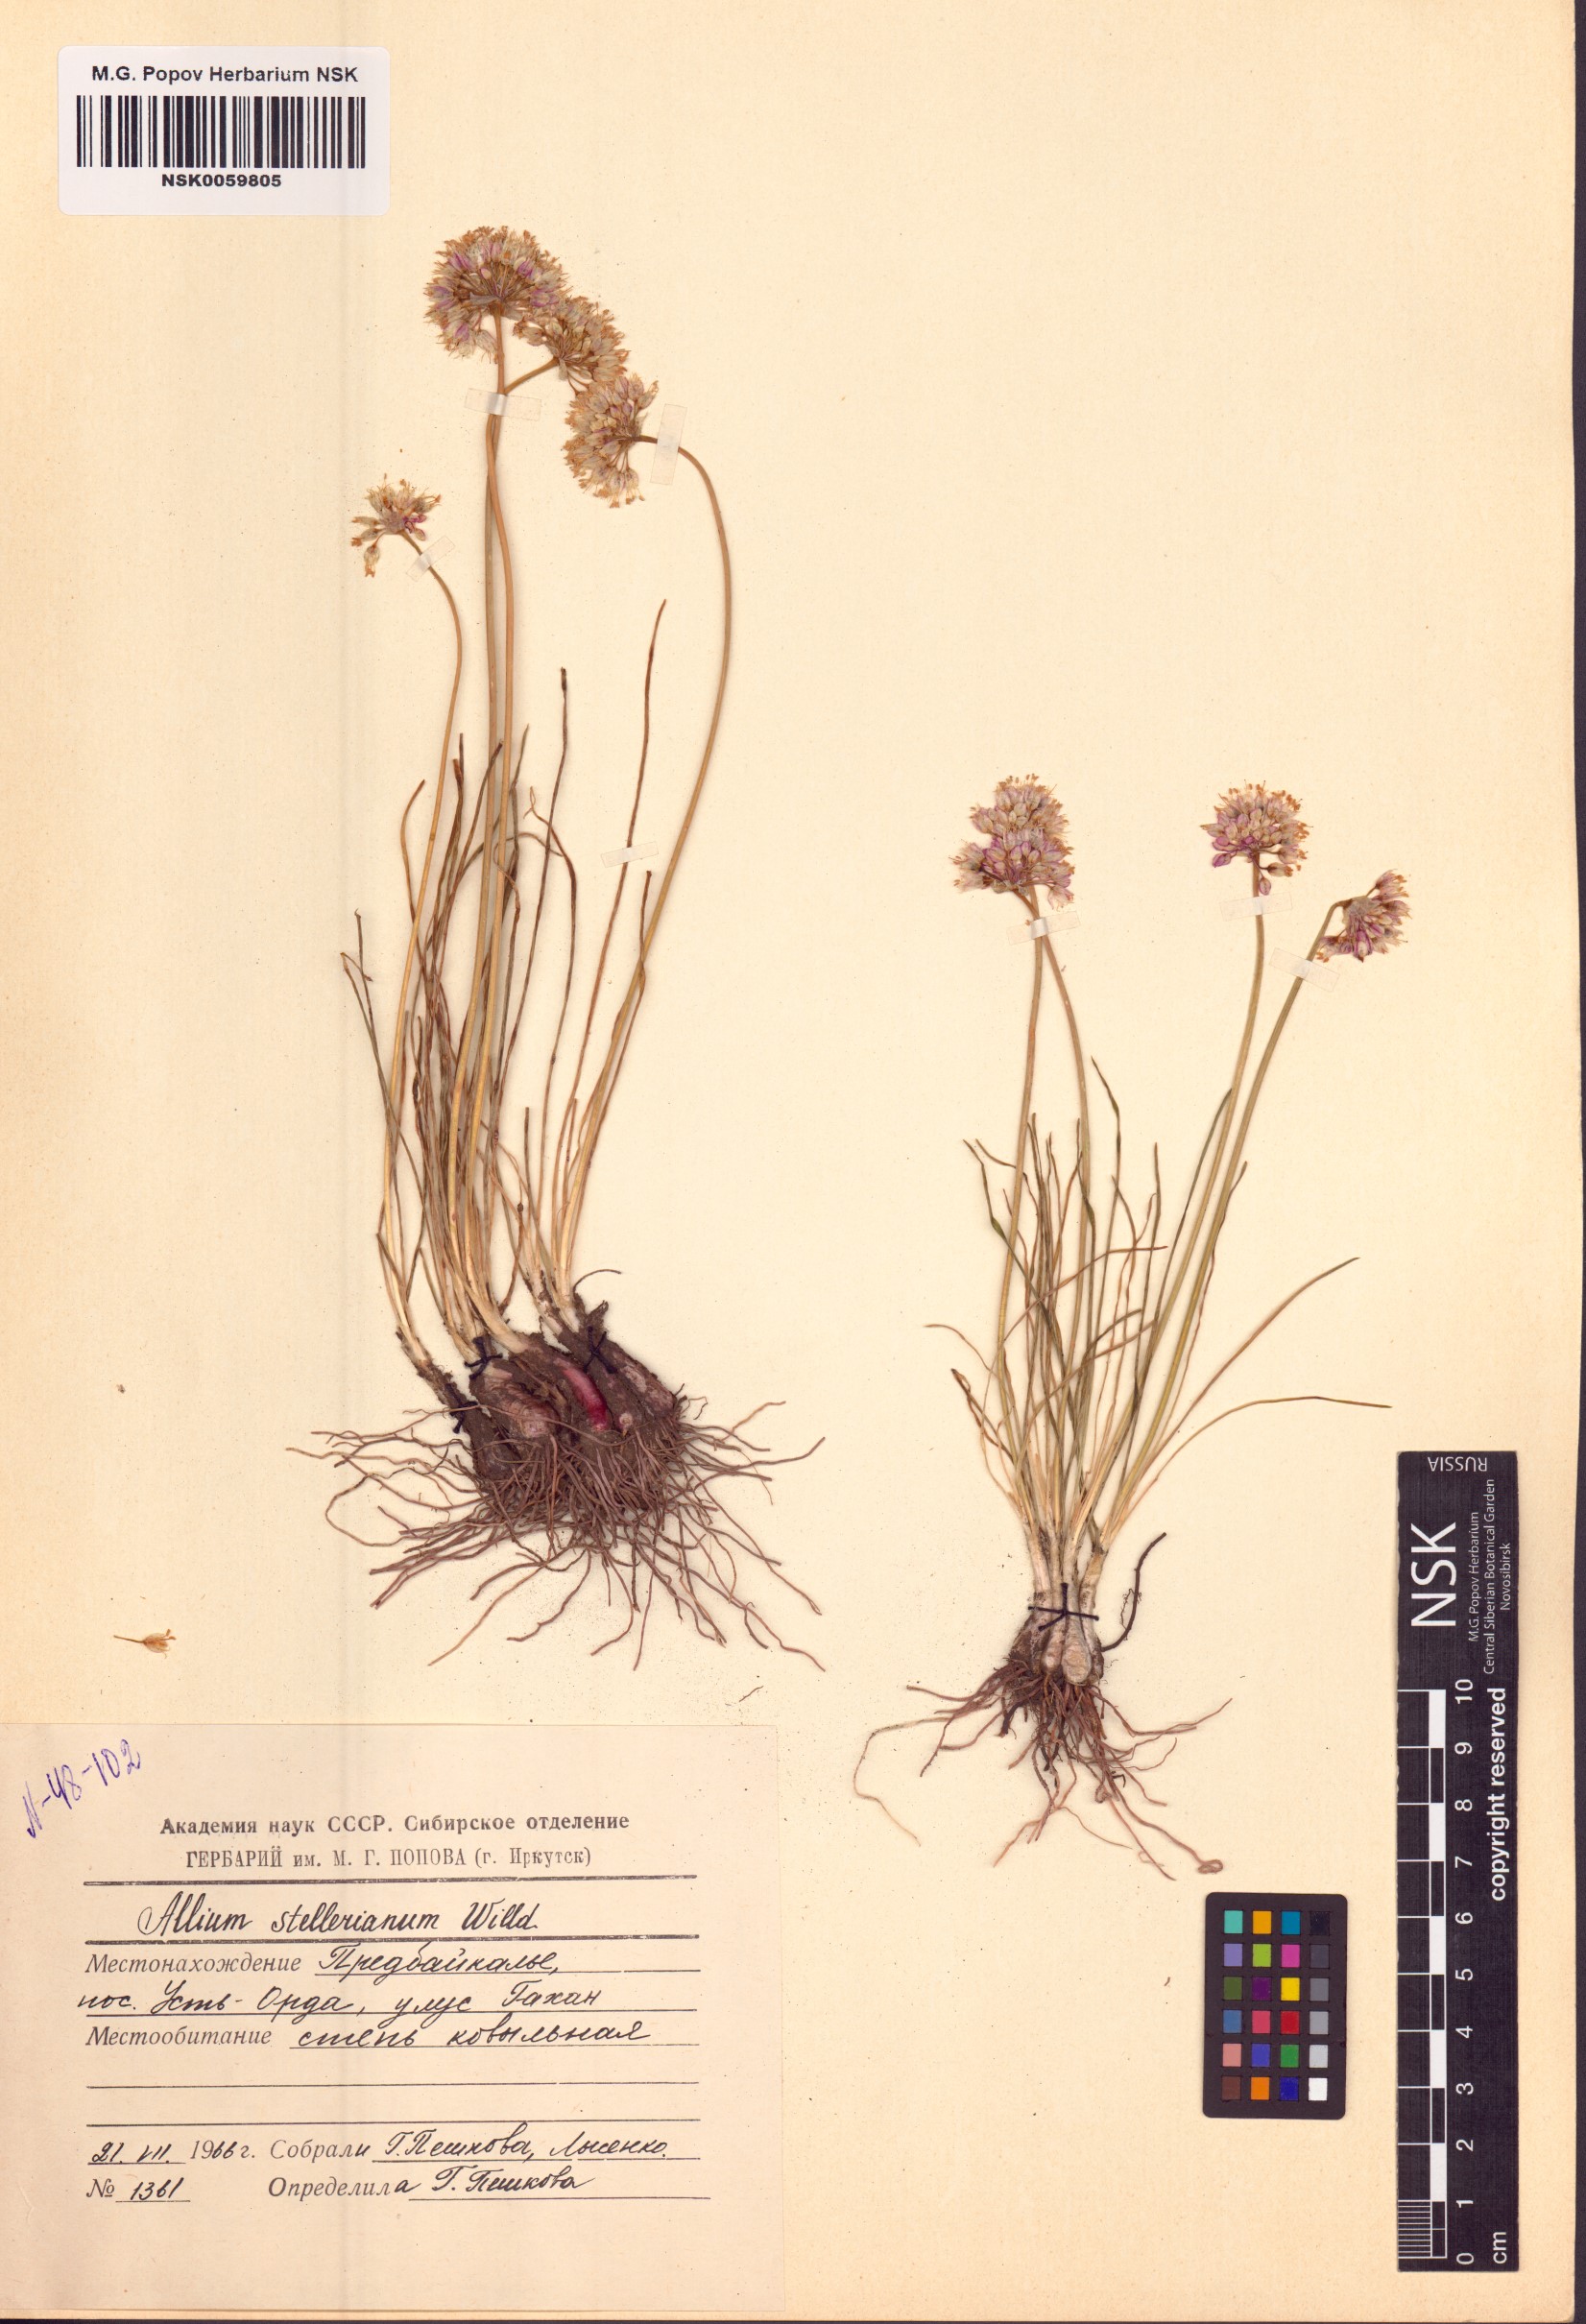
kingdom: Plantae
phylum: Tracheophyta
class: Liliopsida
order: Asparagales
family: Amaryllidaceae
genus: Allium
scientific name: Allium stellerianum
